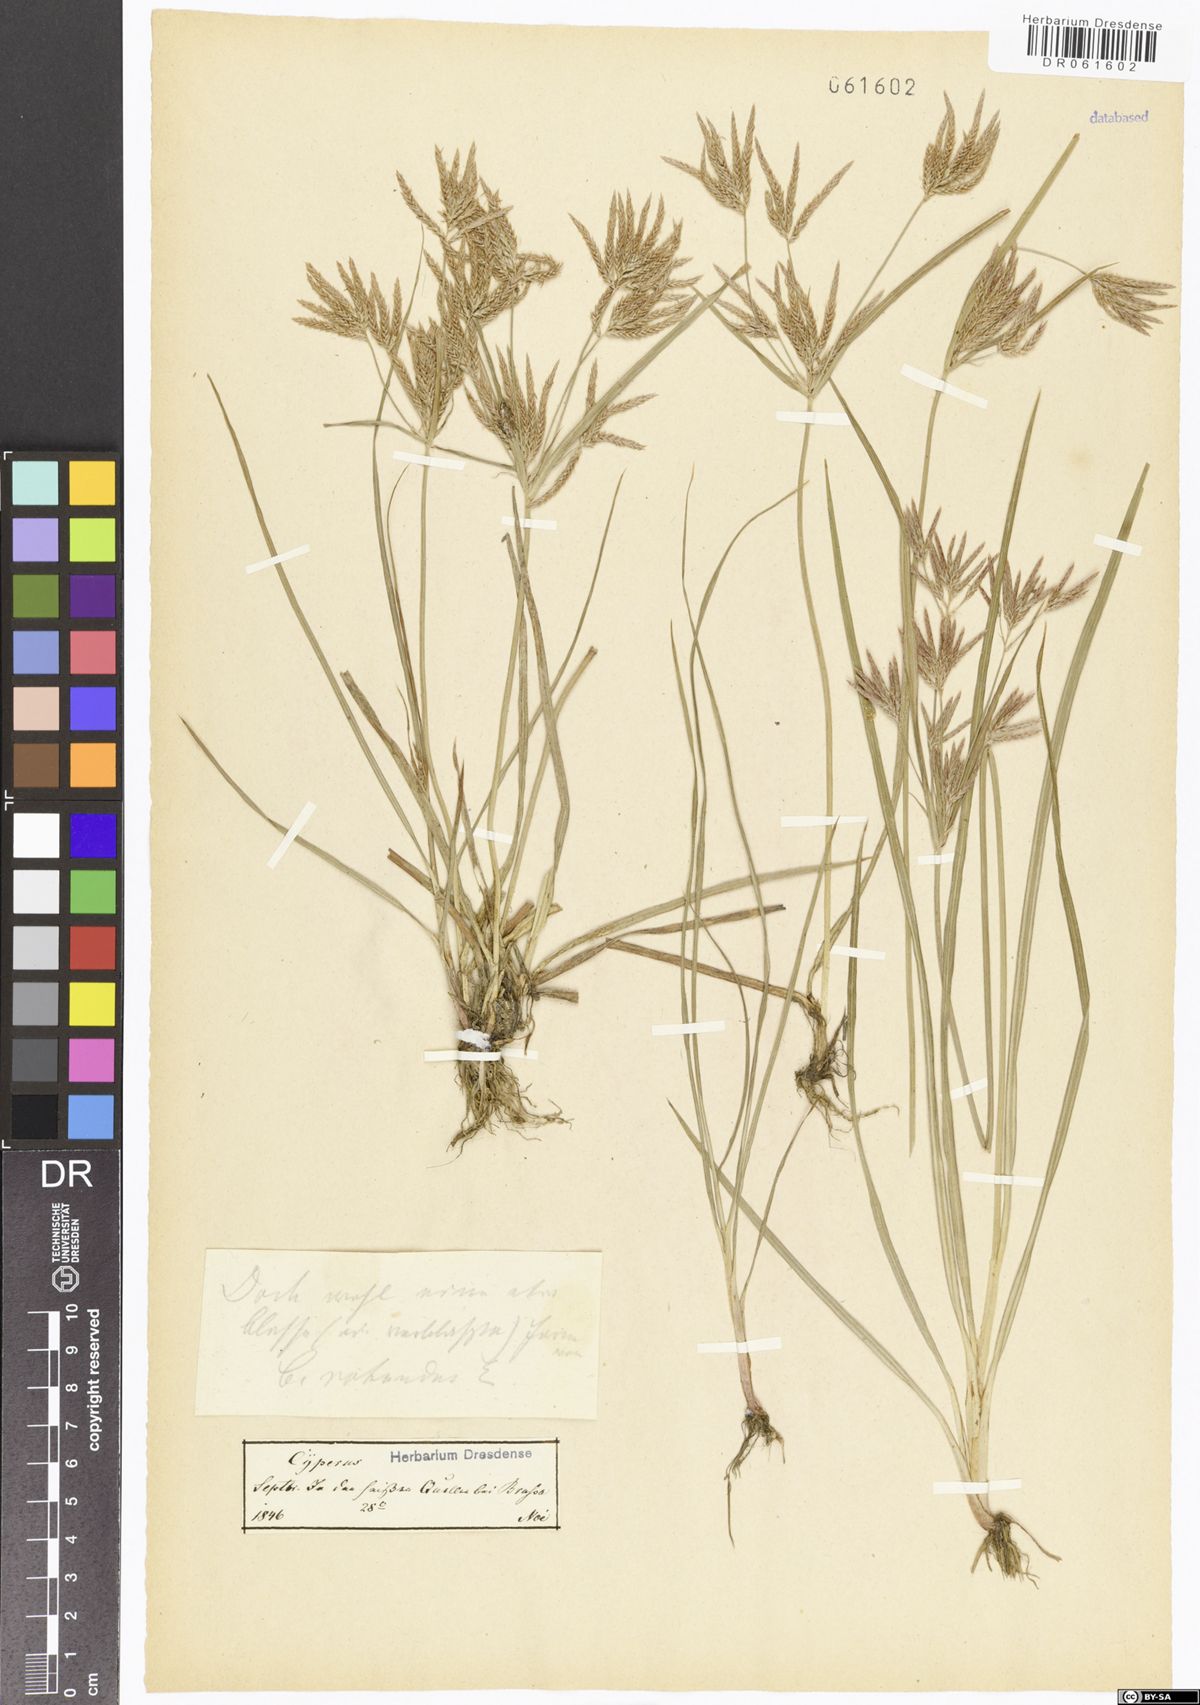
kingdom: Plantae
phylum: Tracheophyta
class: Liliopsida
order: Poales
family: Cyperaceae
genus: Cyperus
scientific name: Cyperus rotundus
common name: Nutgrass
